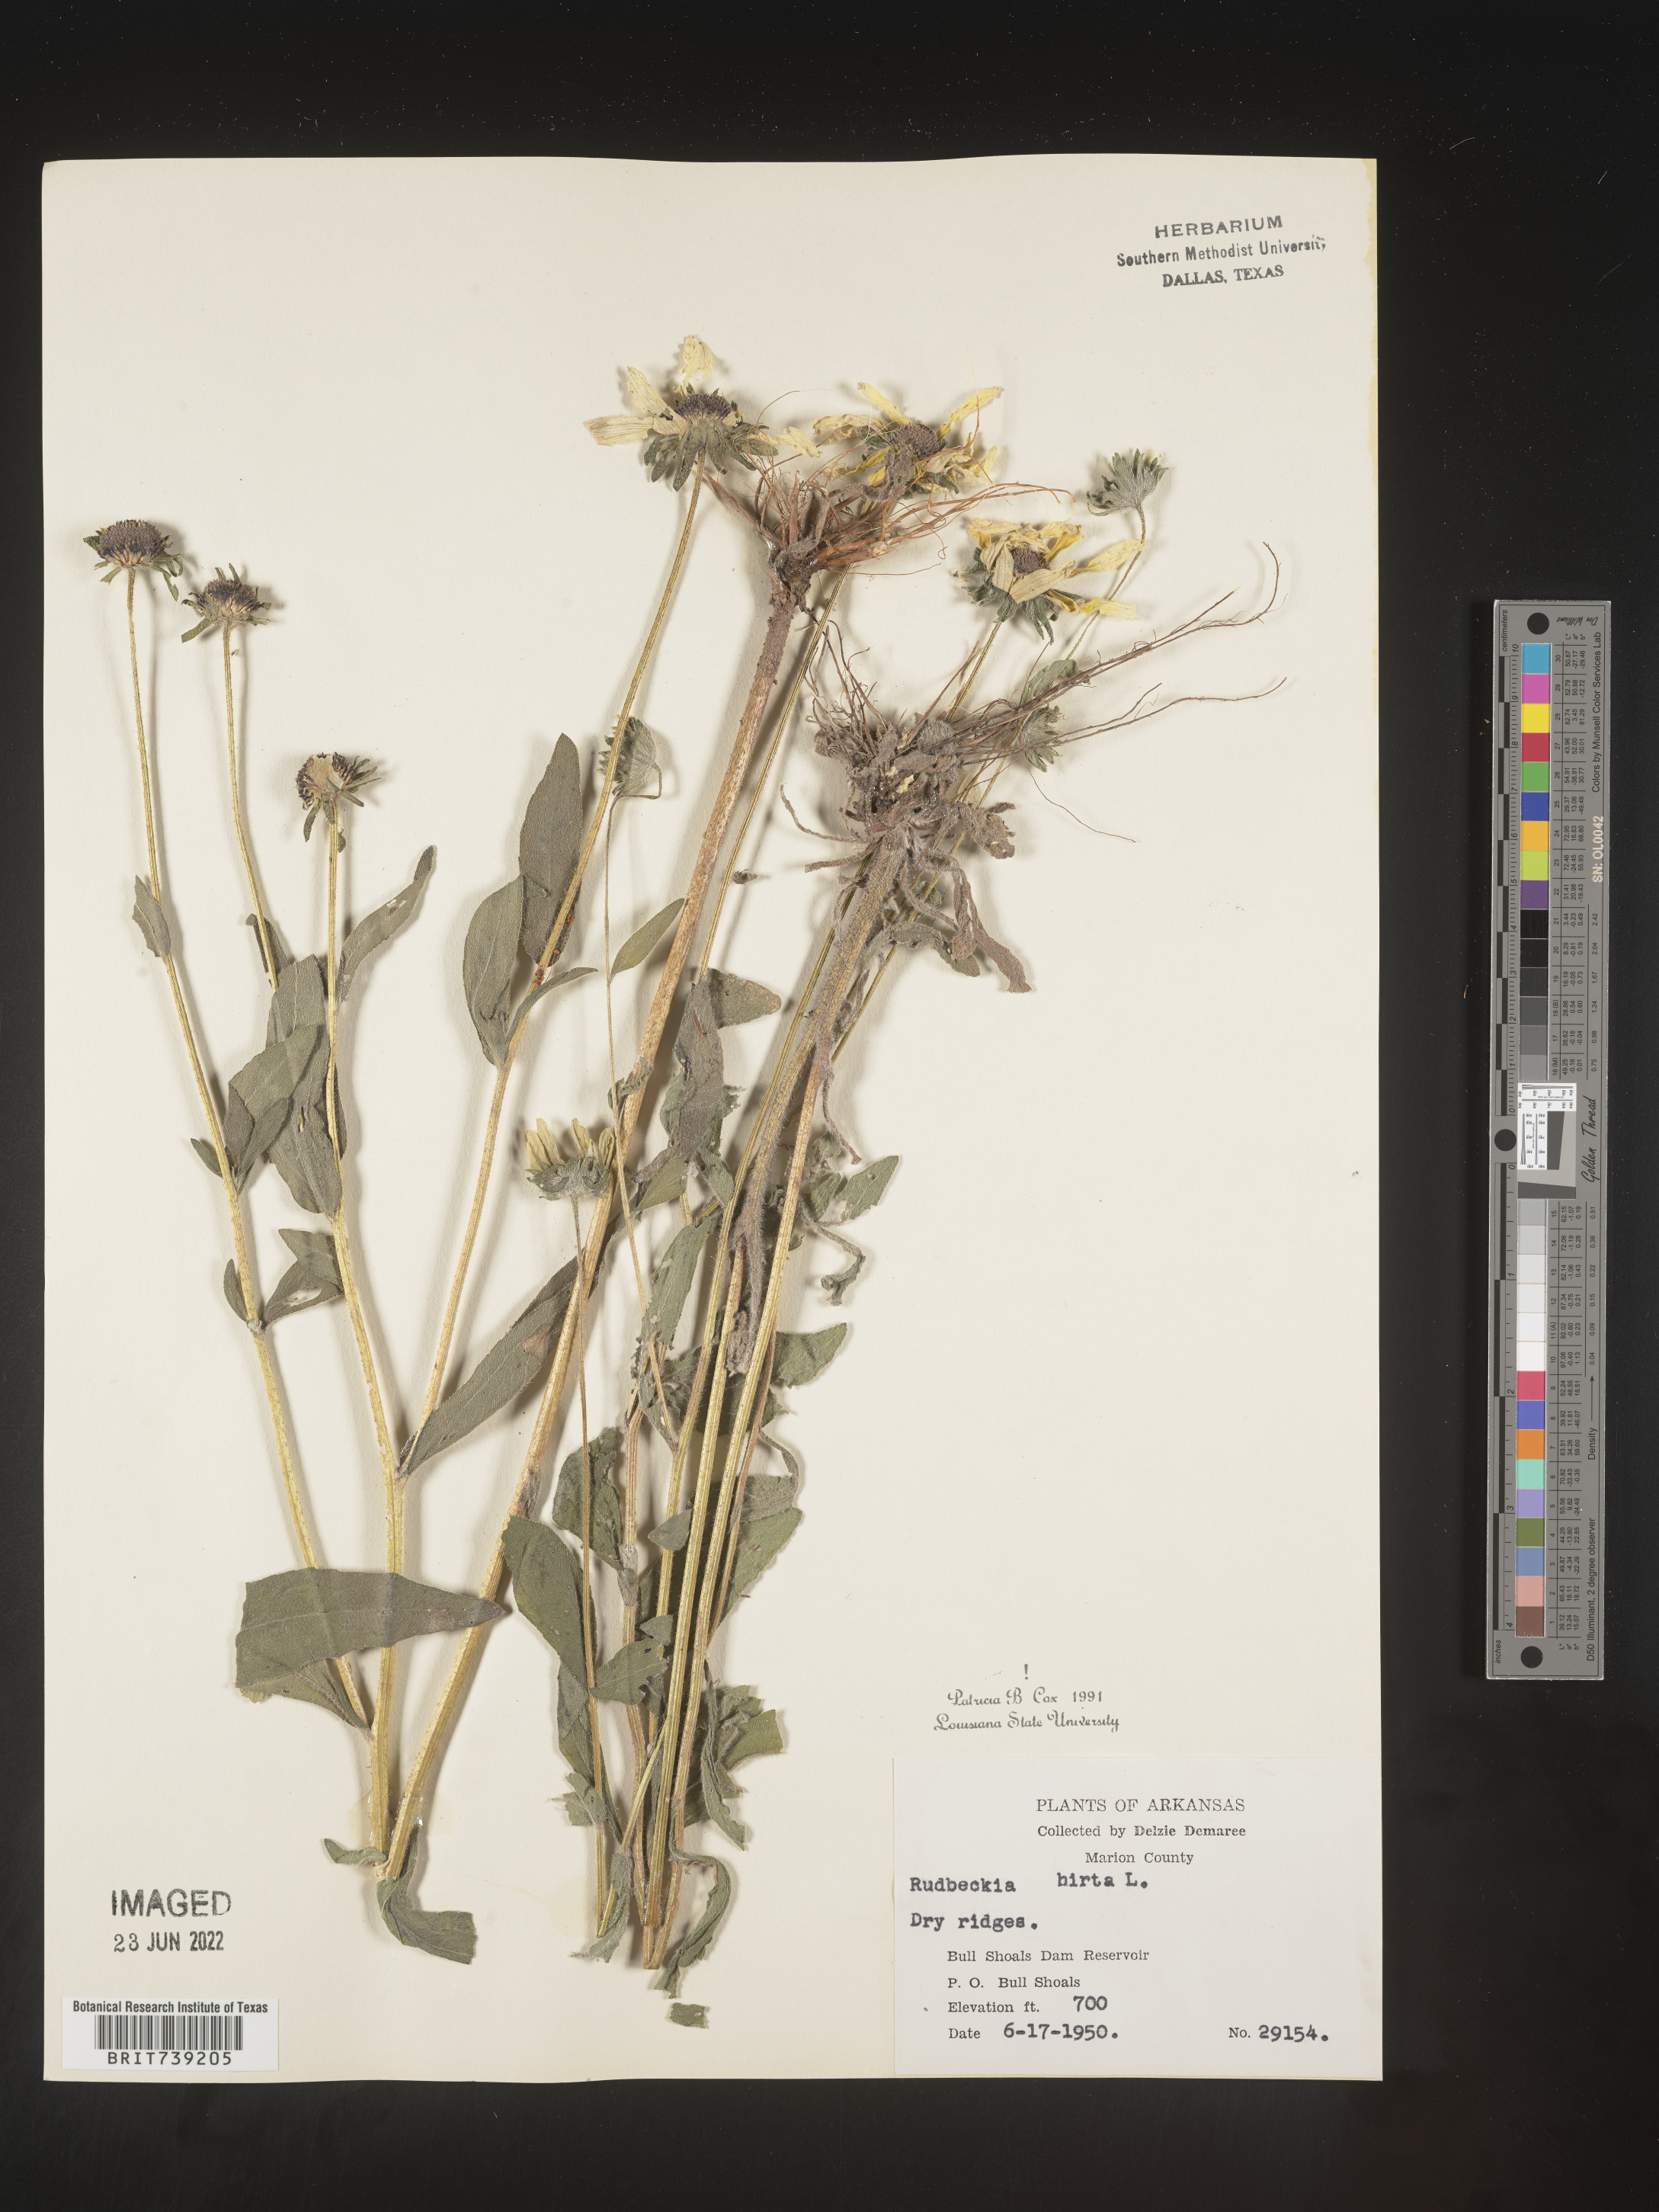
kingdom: Plantae
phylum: Tracheophyta
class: Magnoliopsida
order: Asterales
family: Asteraceae
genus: Rudbeckia
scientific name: Rudbeckia hirta
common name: Black-eyed-susan
